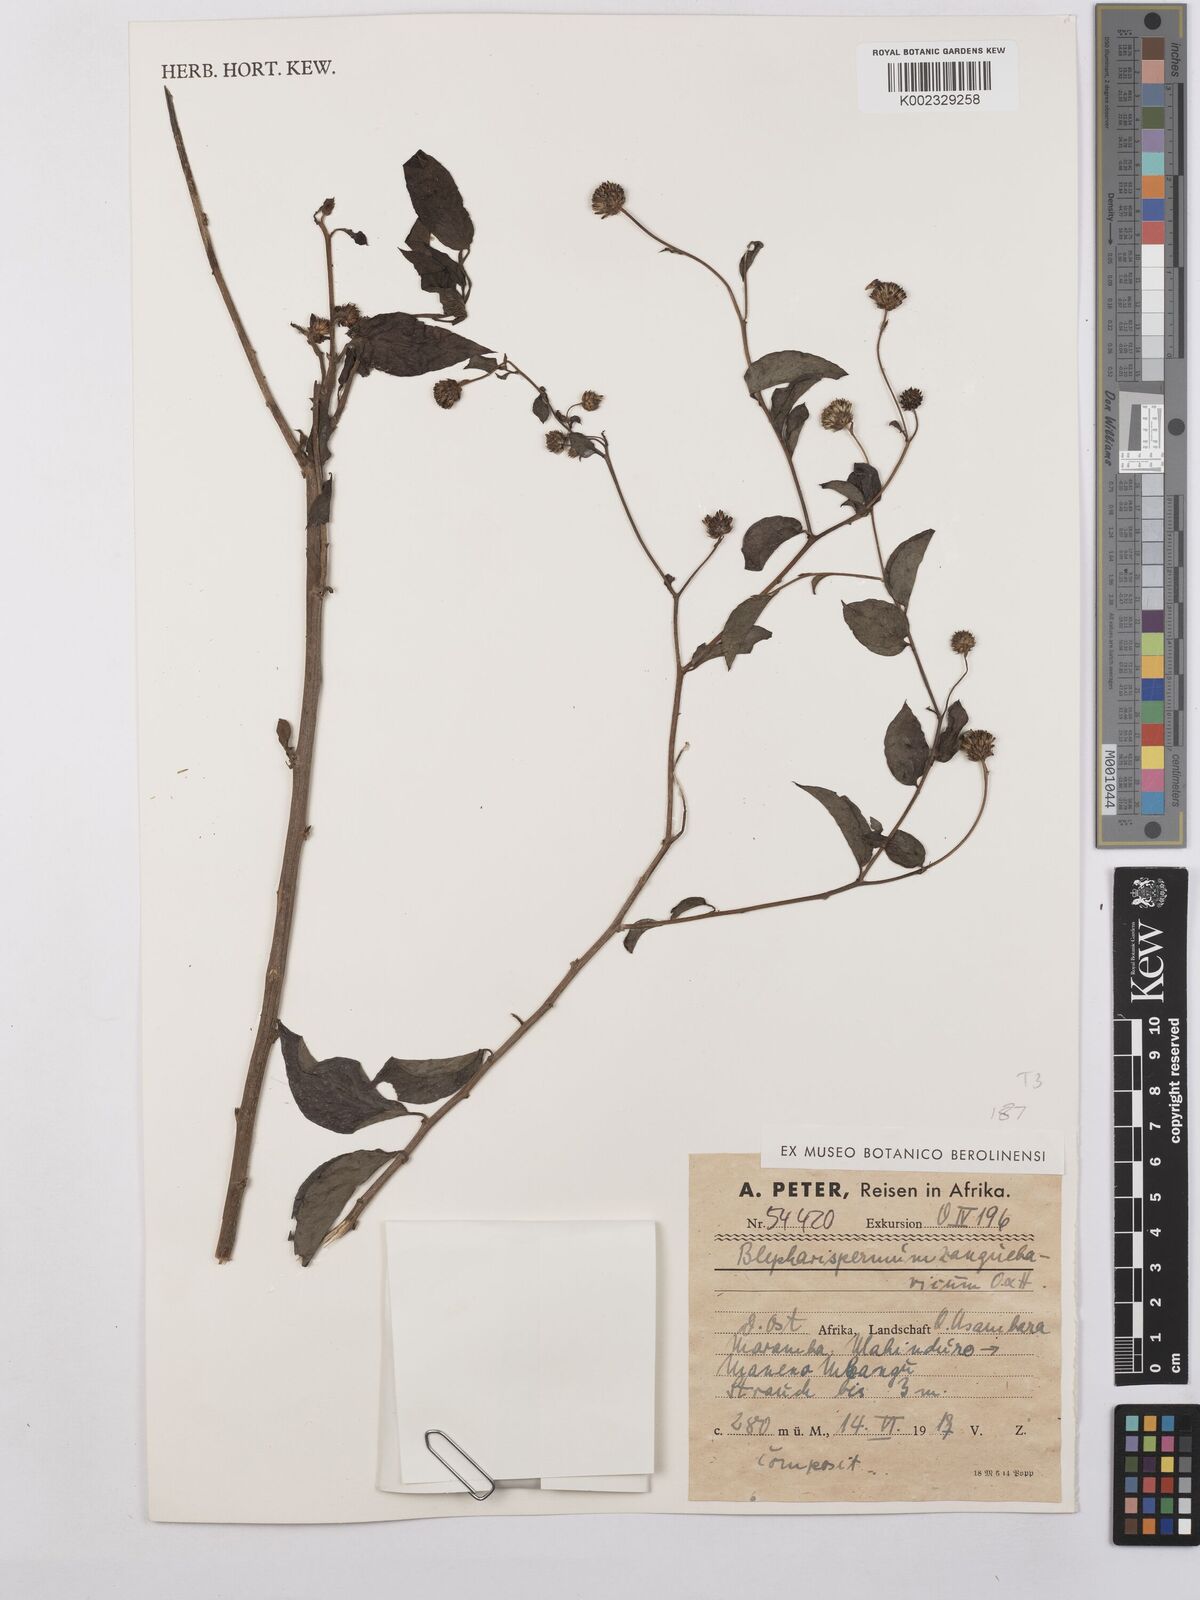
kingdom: Plantae
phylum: Tracheophyta
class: Magnoliopsida
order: Asterales
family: Asteraceae
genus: Blepharispermum
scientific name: Blepharispermum zanguebaricum
